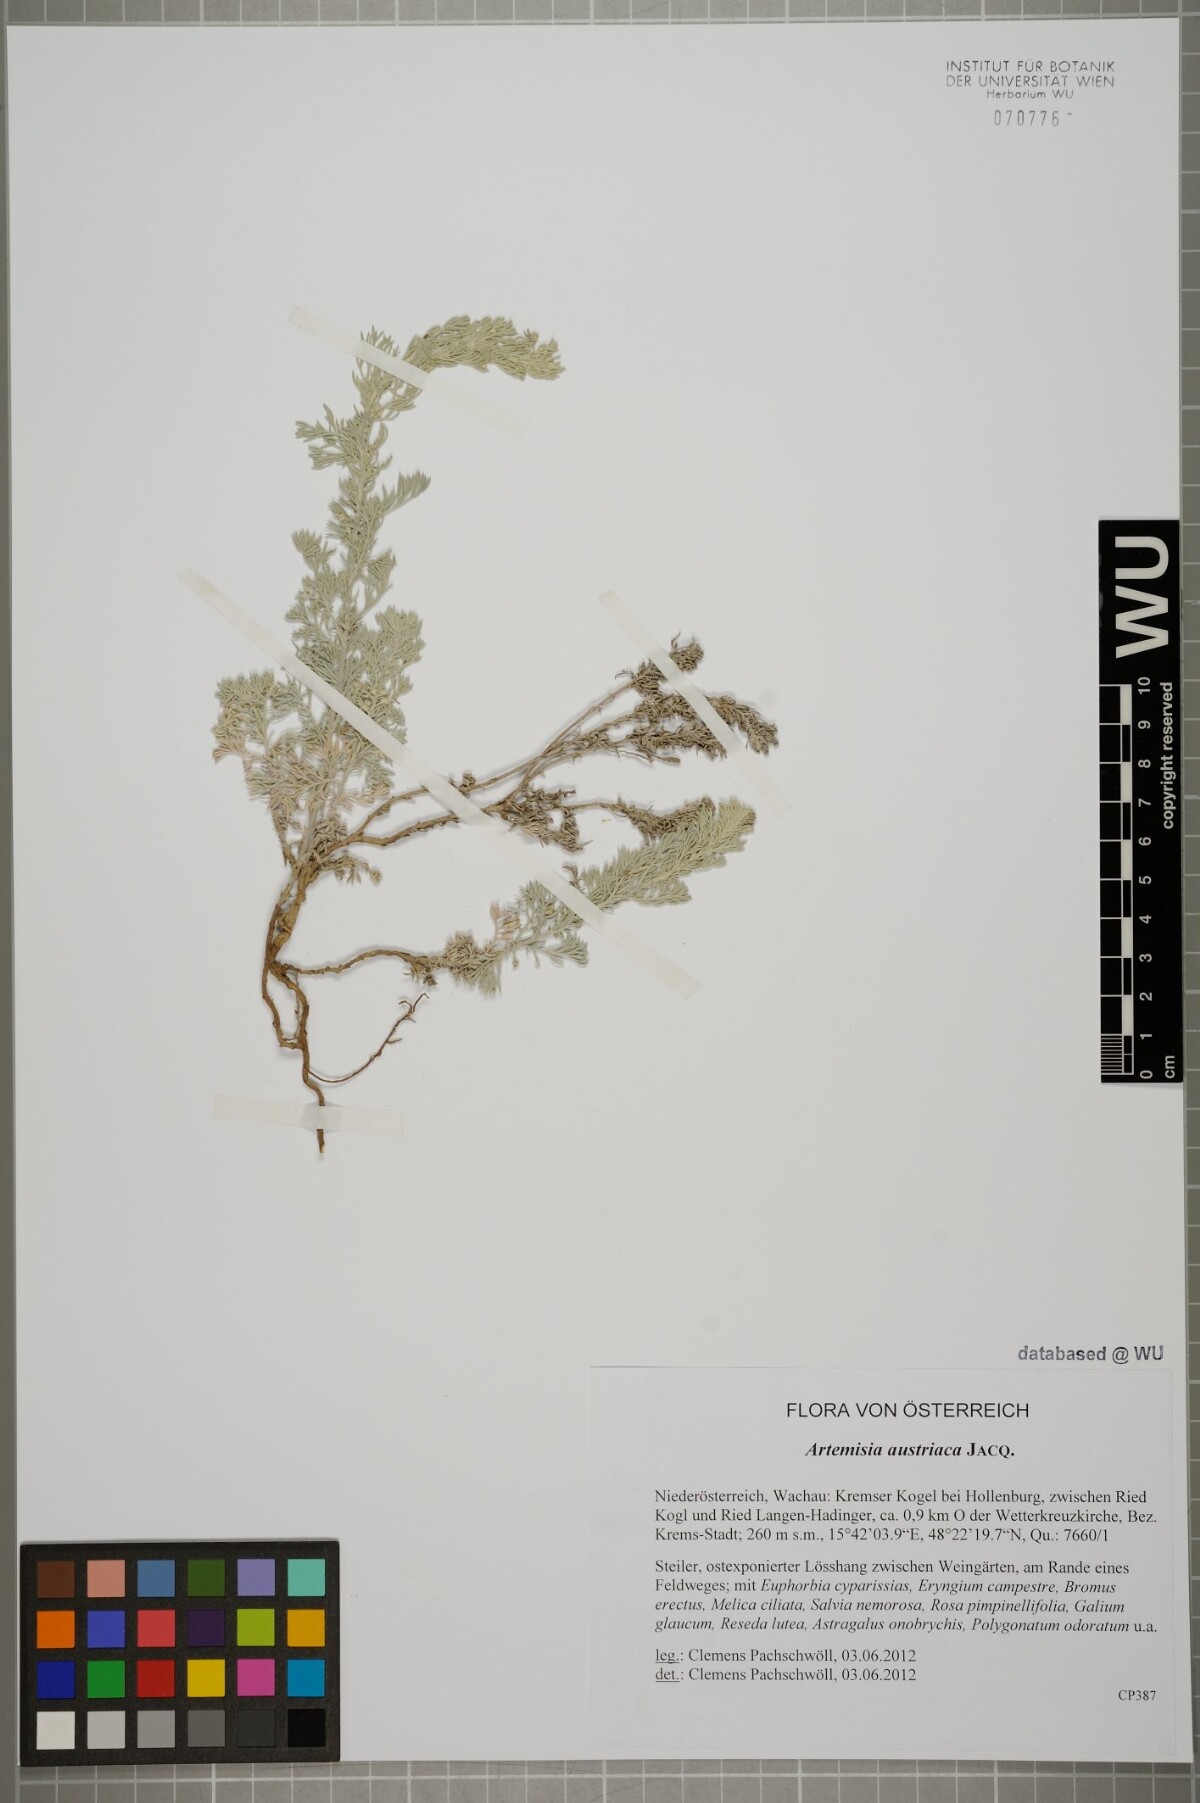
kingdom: Plantae
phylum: Tracheophyta
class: Magnoliopsida
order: Asterales
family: Asteraceae
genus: Artemisia
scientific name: Artemisia austriaca
